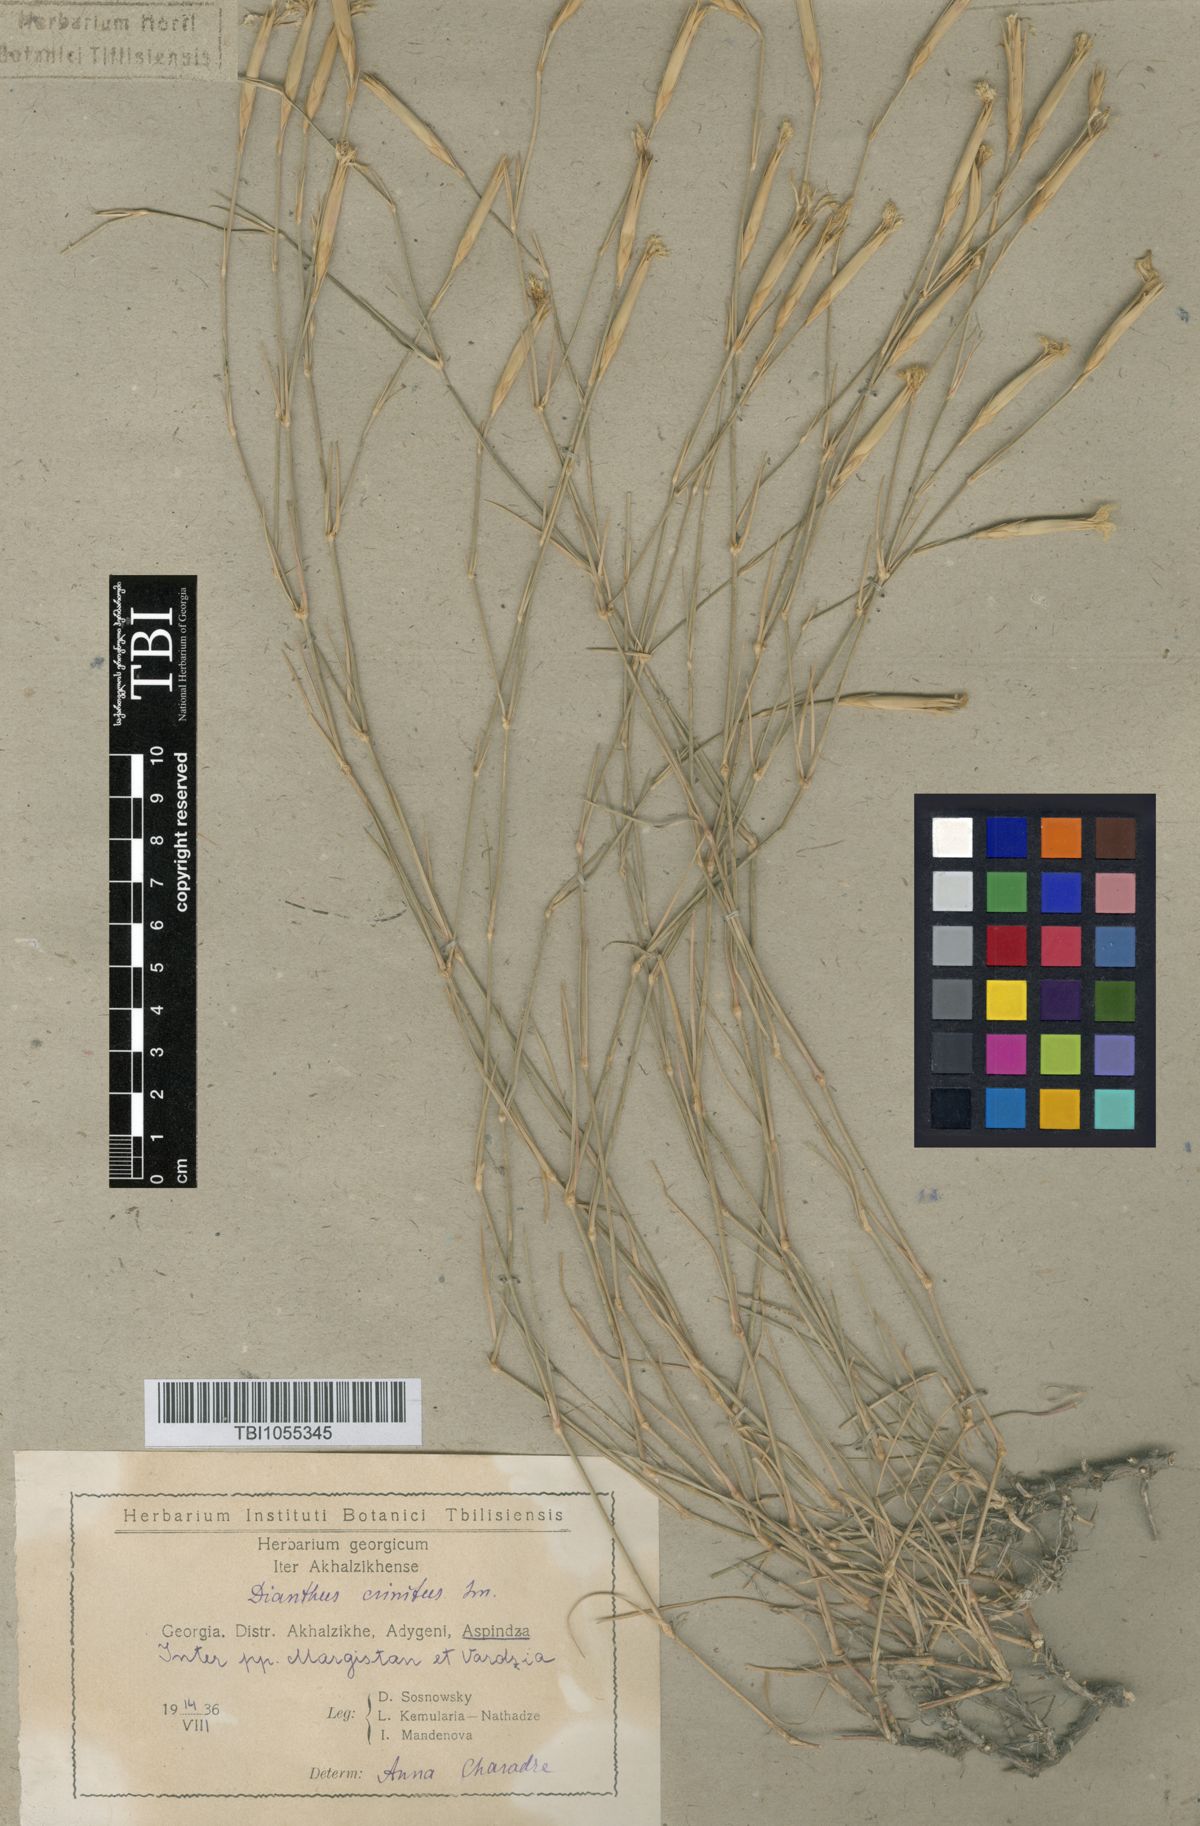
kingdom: Plantae
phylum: Tracheophyta
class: Magnoliopsida
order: Caryophyllales
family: Caryophyllaceae
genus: Dianthus
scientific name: Dianthus crinitus
